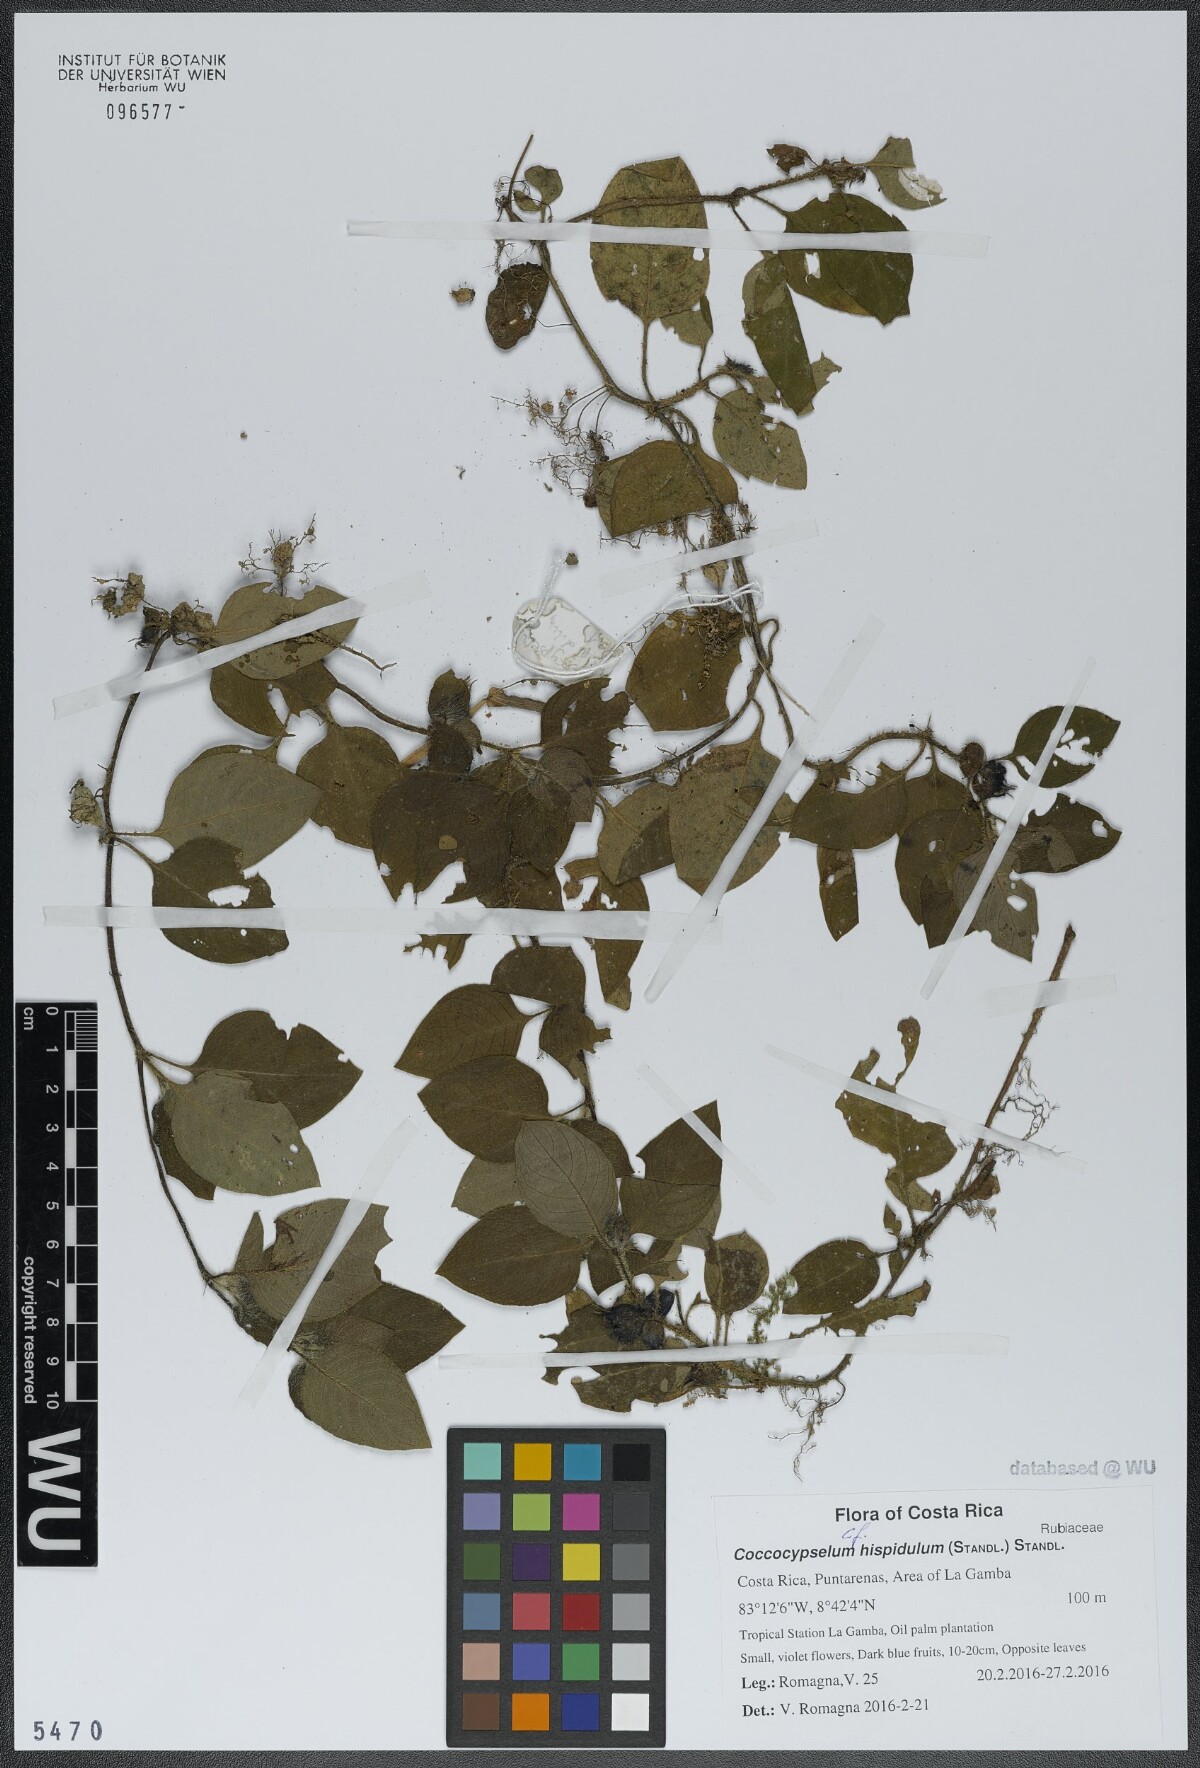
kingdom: Plantae
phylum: Tracheophyta
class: Magnoliopsida
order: Gentianales
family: Rubiaceae
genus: Coccocypselum
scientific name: Coccocypselum hispidulum
